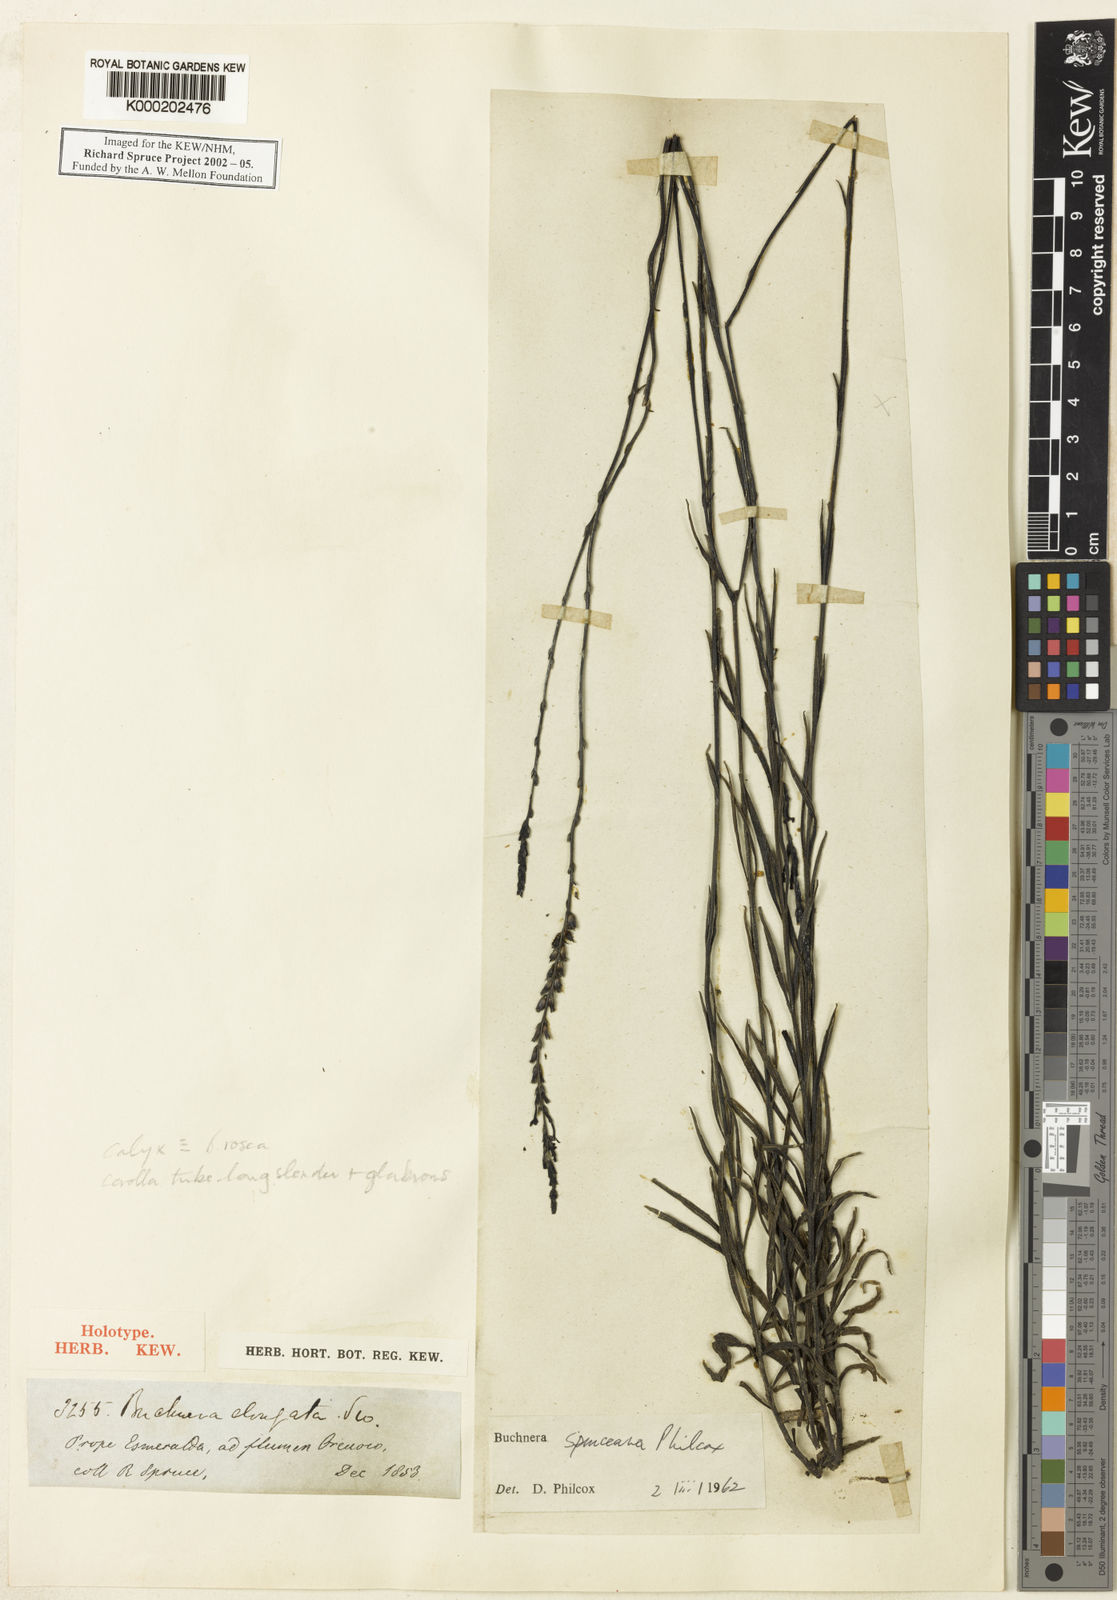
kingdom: Plantae
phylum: Tracheophyta
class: Magnoliopsida
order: Lamiales
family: Orobanchaceae
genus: Buchnera
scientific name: Buchnera spruceana
